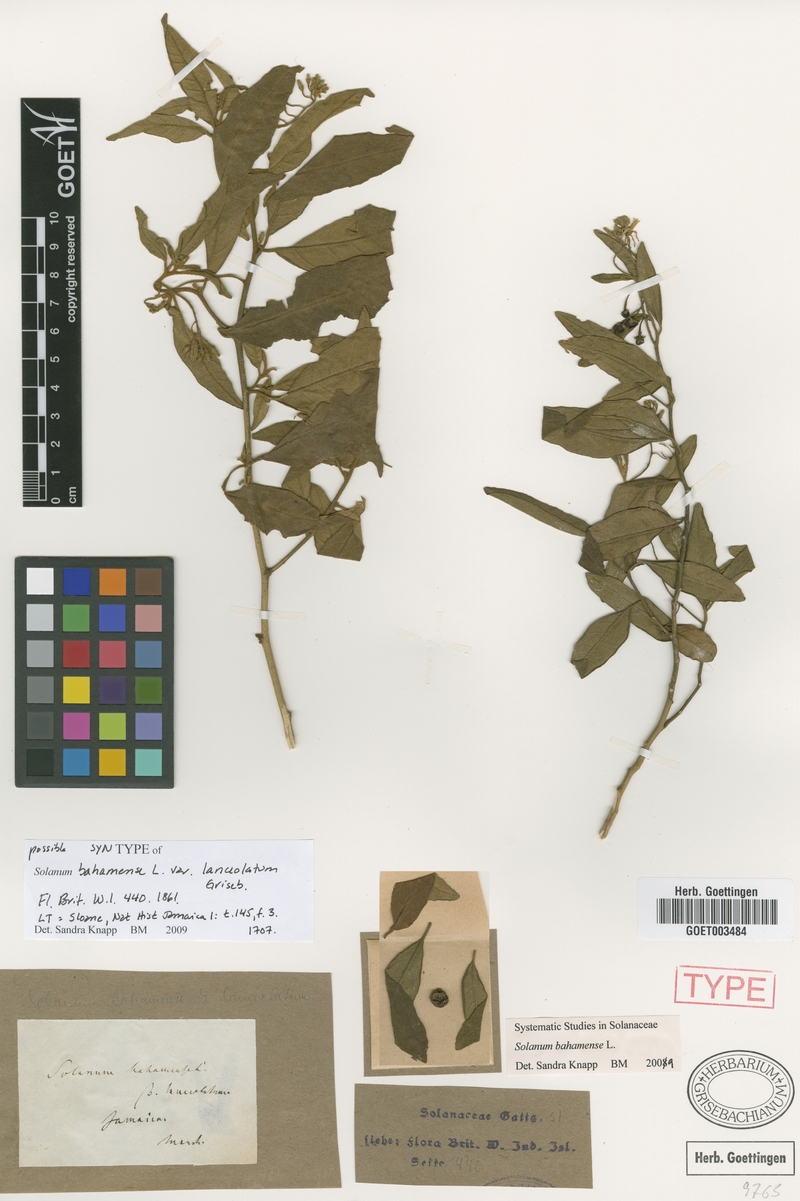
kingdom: Plantae
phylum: Tracheophyta
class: Magnoliopsida
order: Solanales
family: Solanaceae
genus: Solanum
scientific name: Solanum bahamense
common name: Canker-berry
